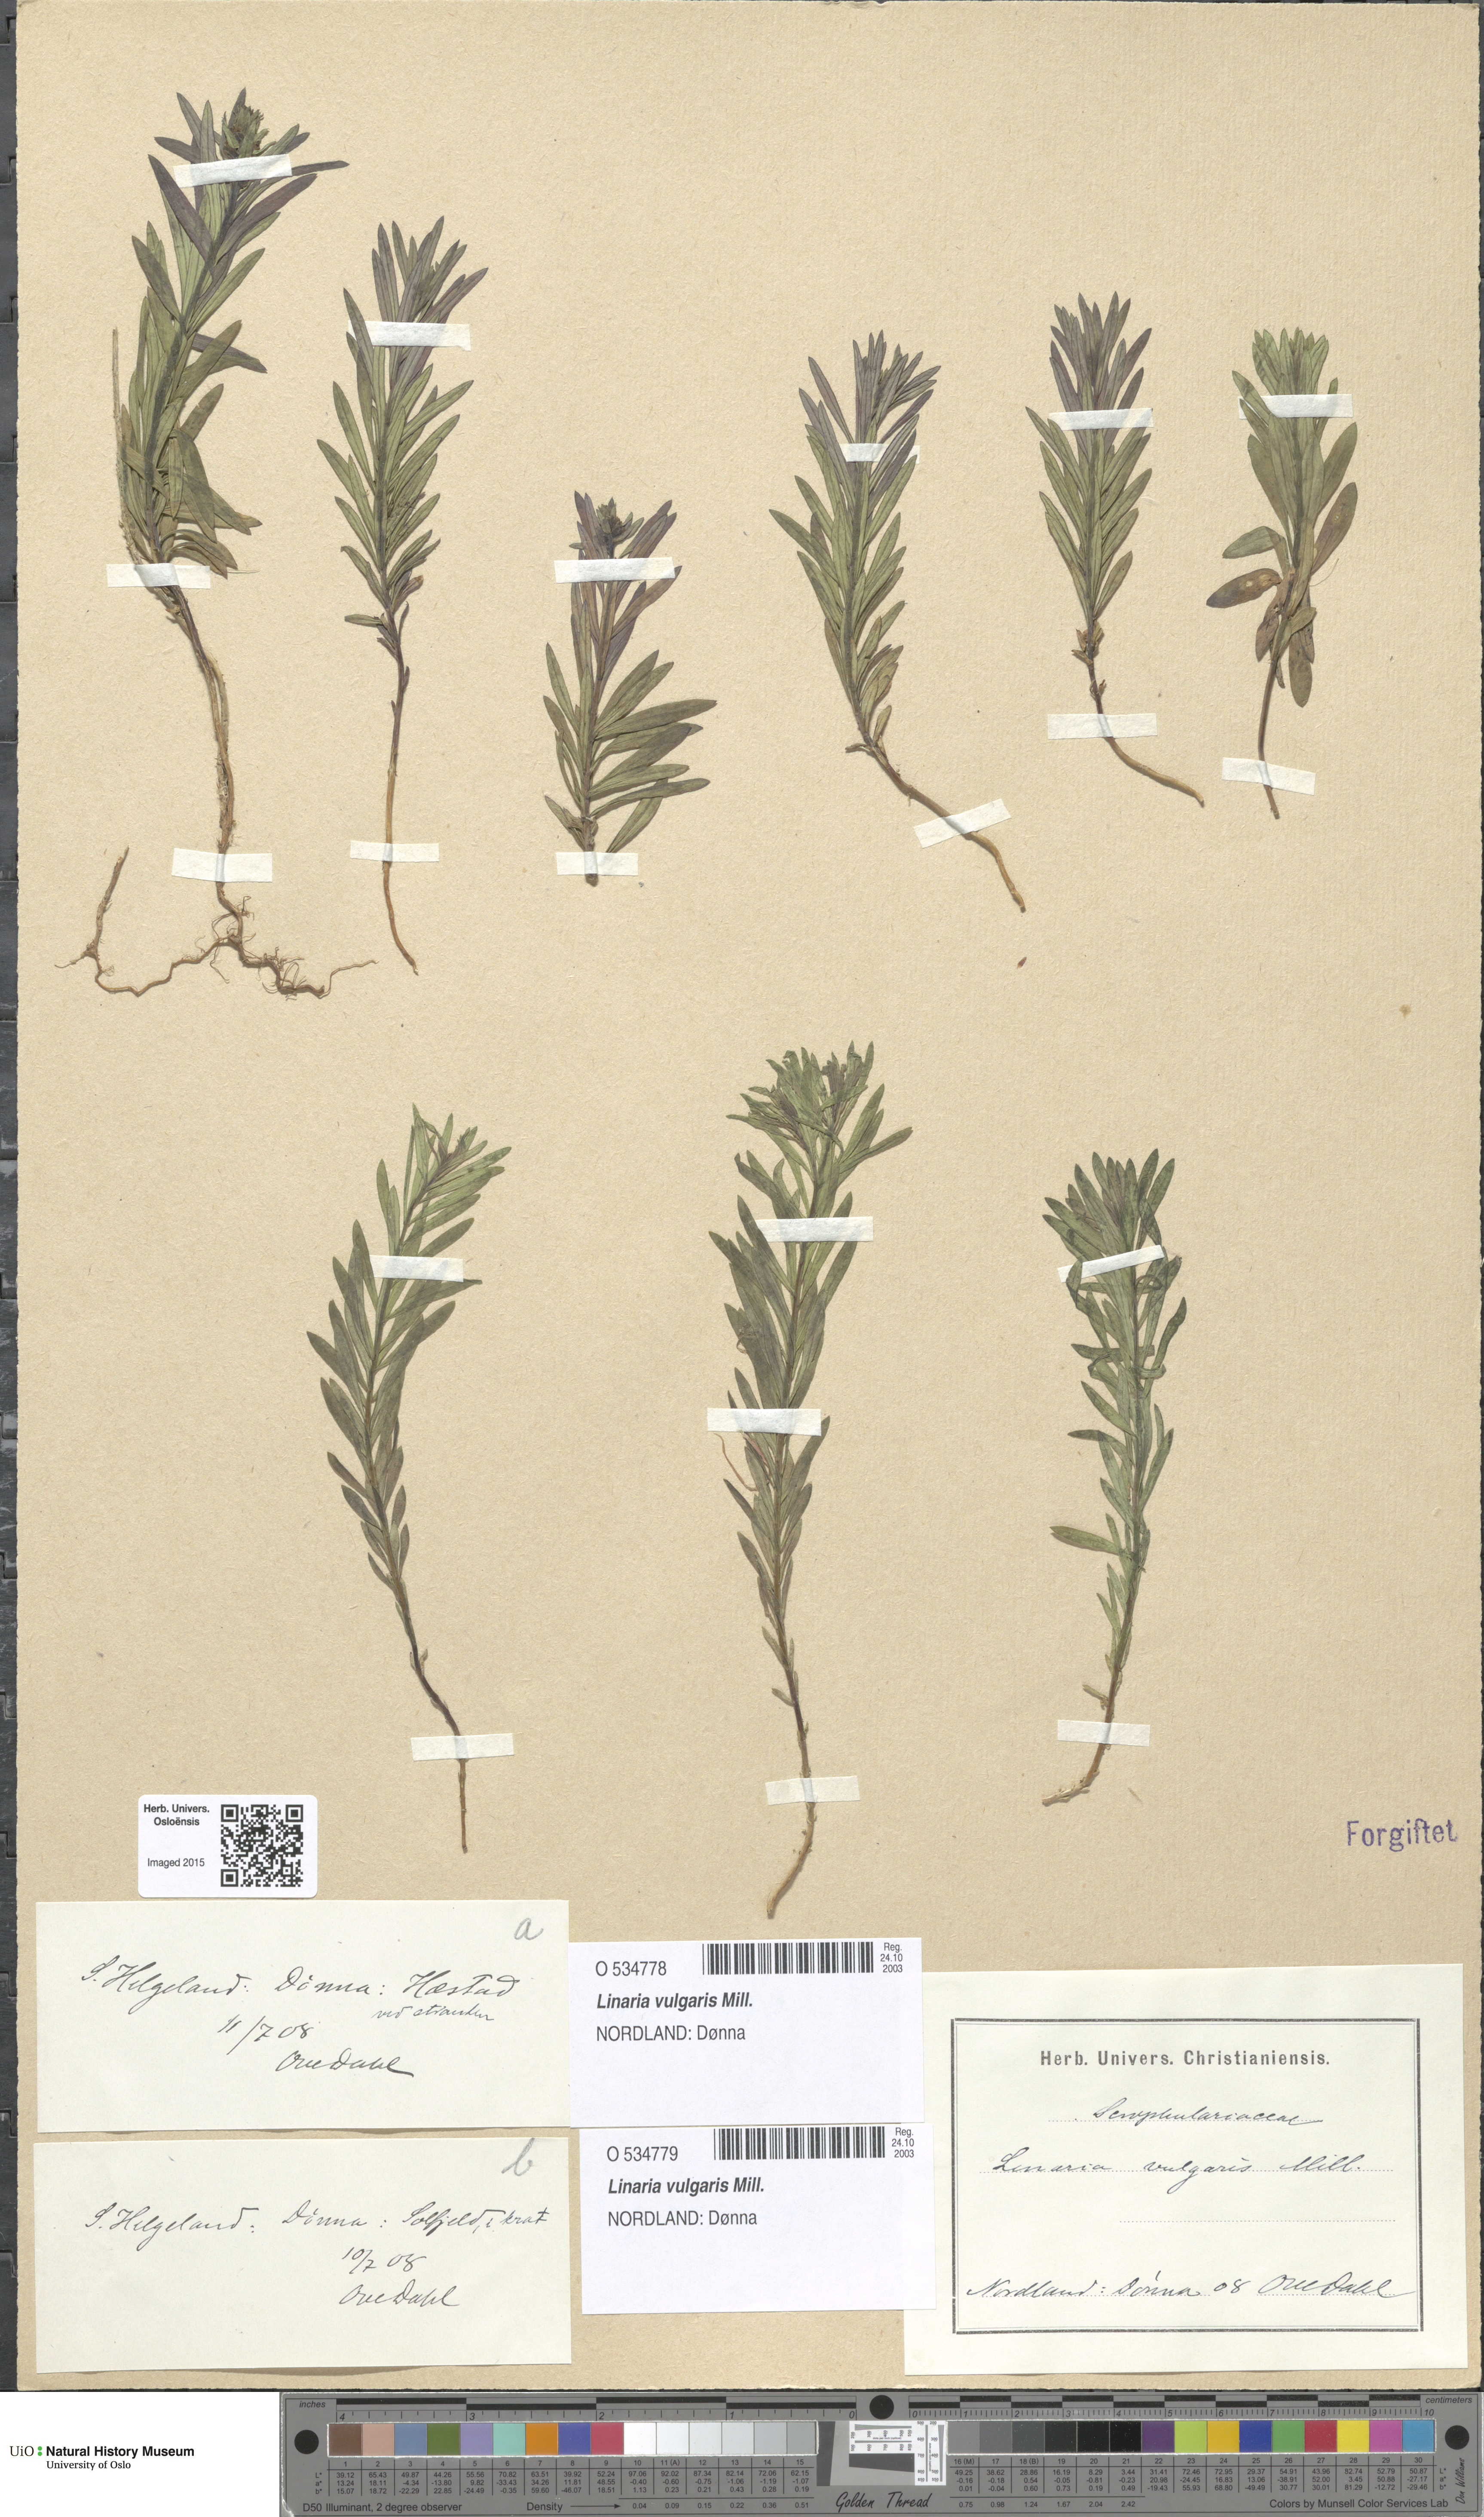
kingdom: Plantae
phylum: Tracheophyta
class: Magnoliopsida
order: Lamiales
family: Plantaginaceae
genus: Linaria
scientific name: Linaria vulgaris
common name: Butter and eggs
